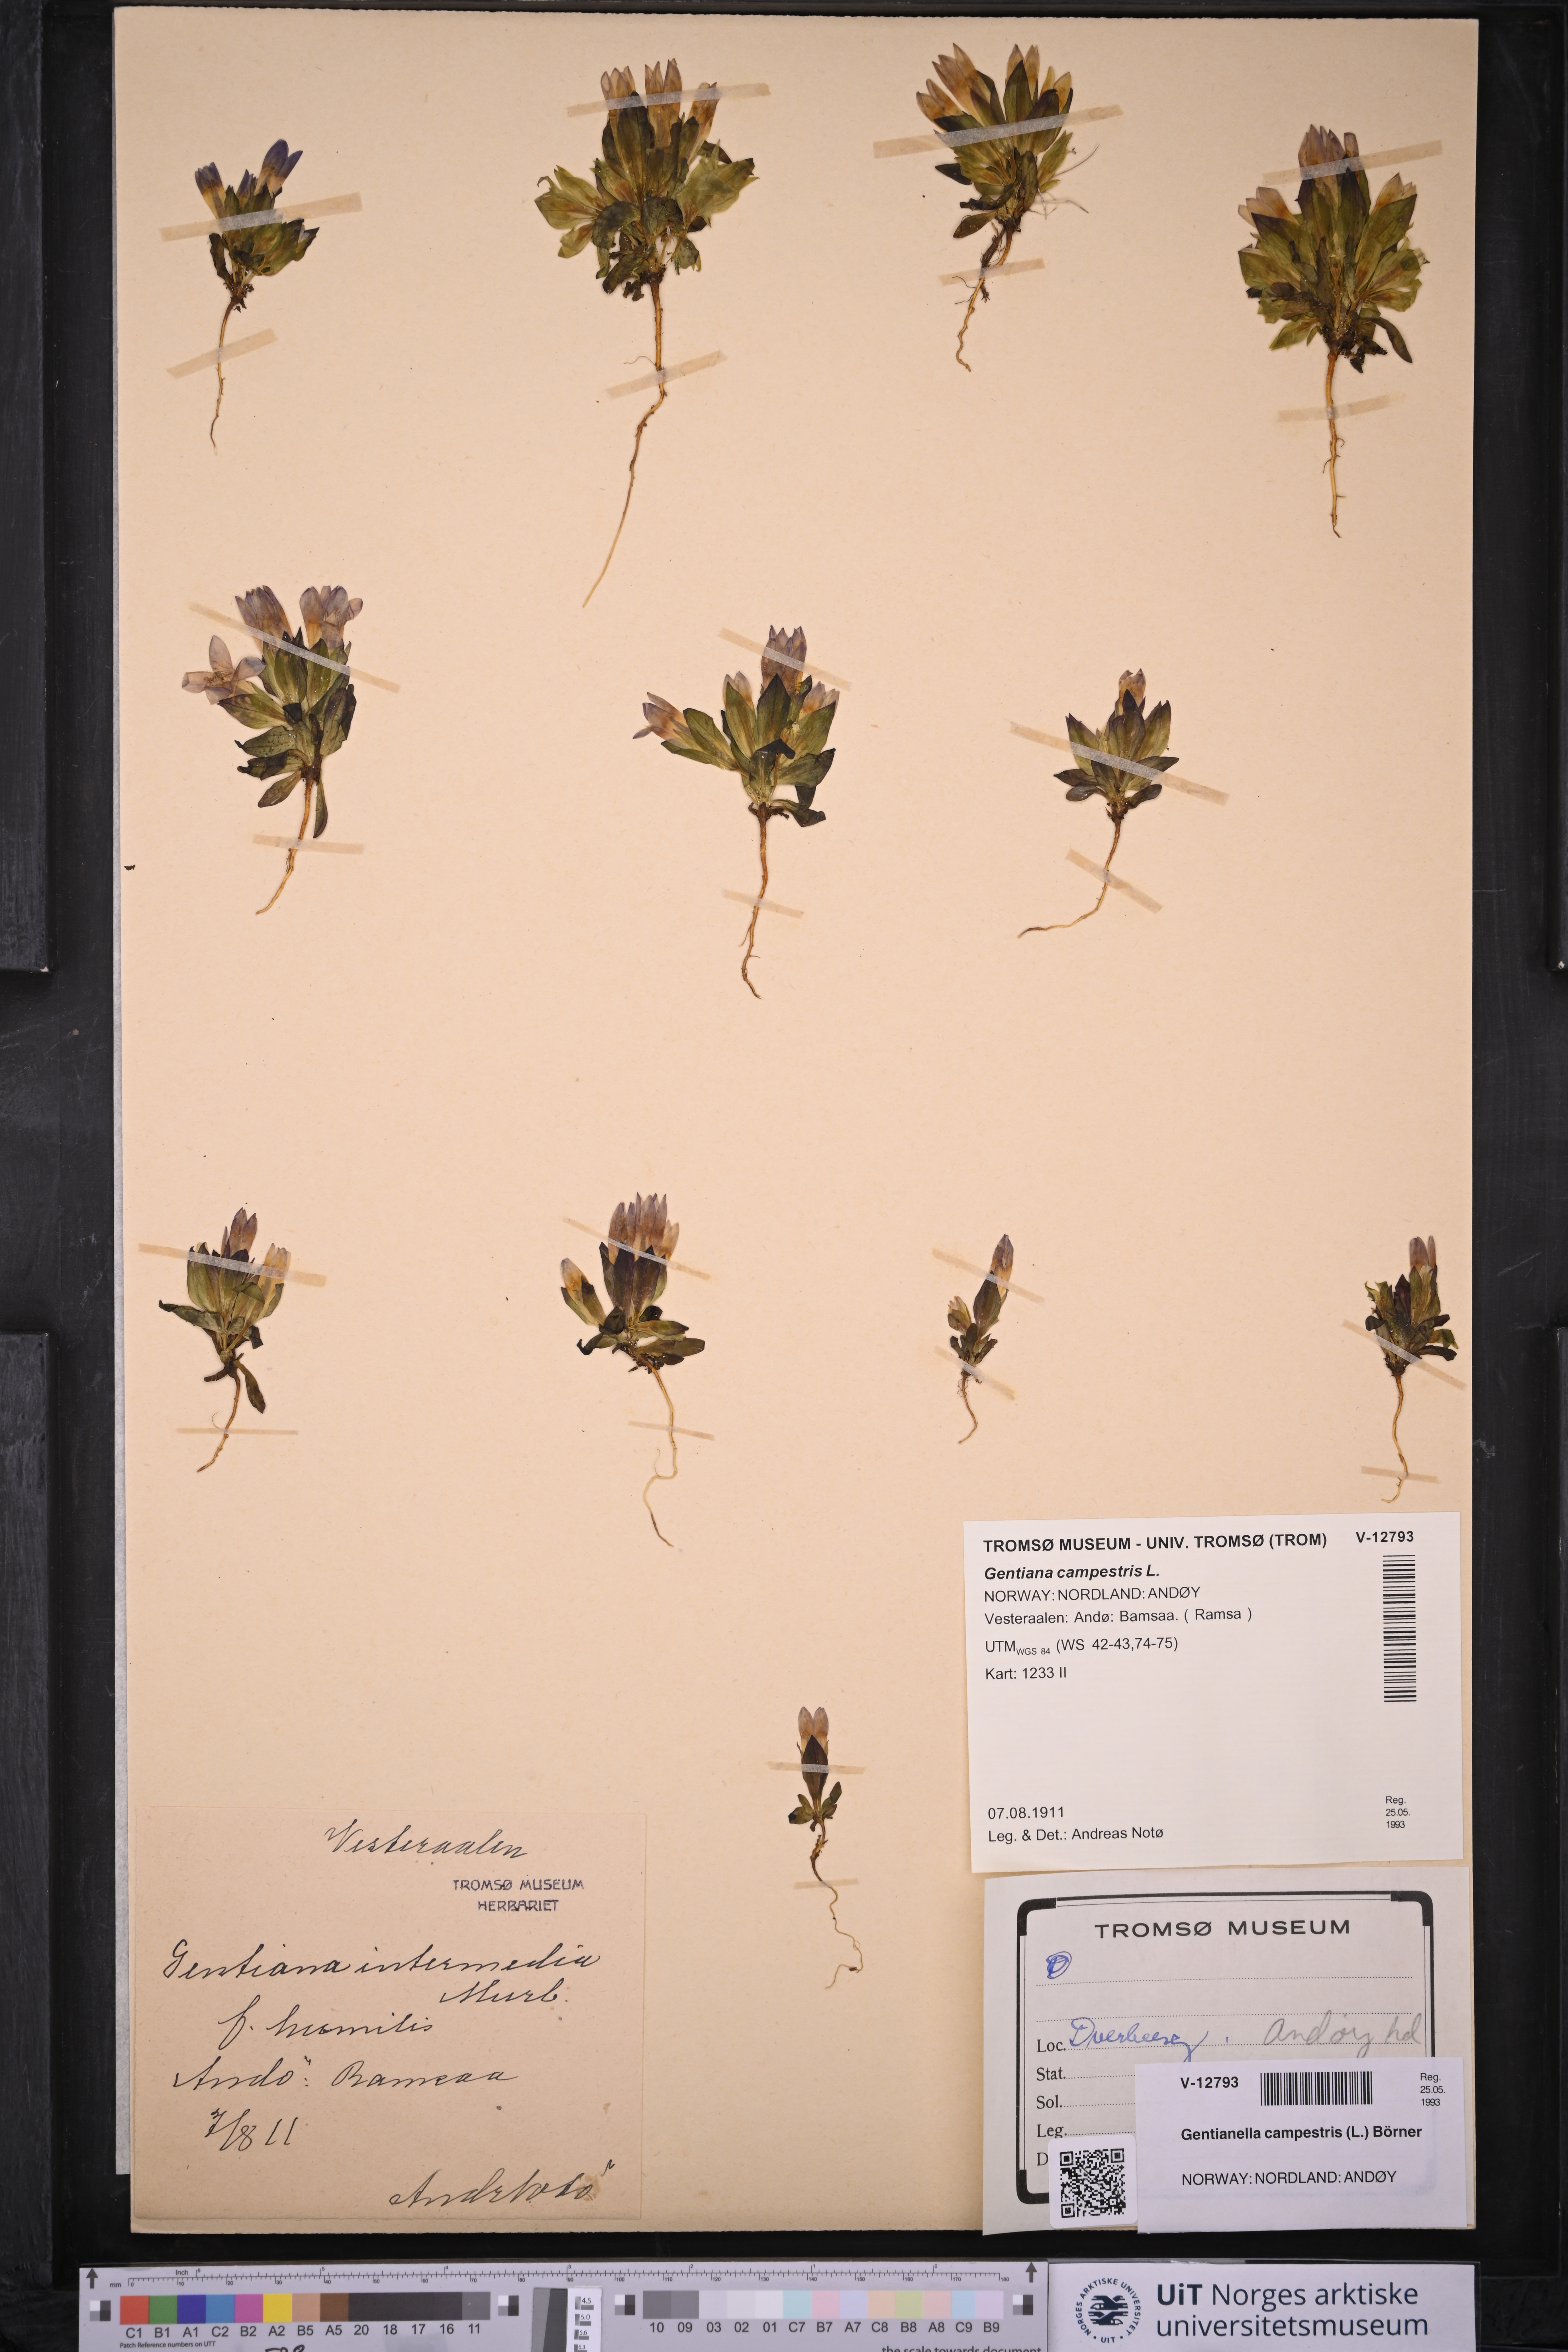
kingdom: Plantae
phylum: Tracheophyta
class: Magnoliopsida
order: Gentianales
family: Gentianaceae
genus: Gentianella
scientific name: Gentianella campestris
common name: Field gentian
